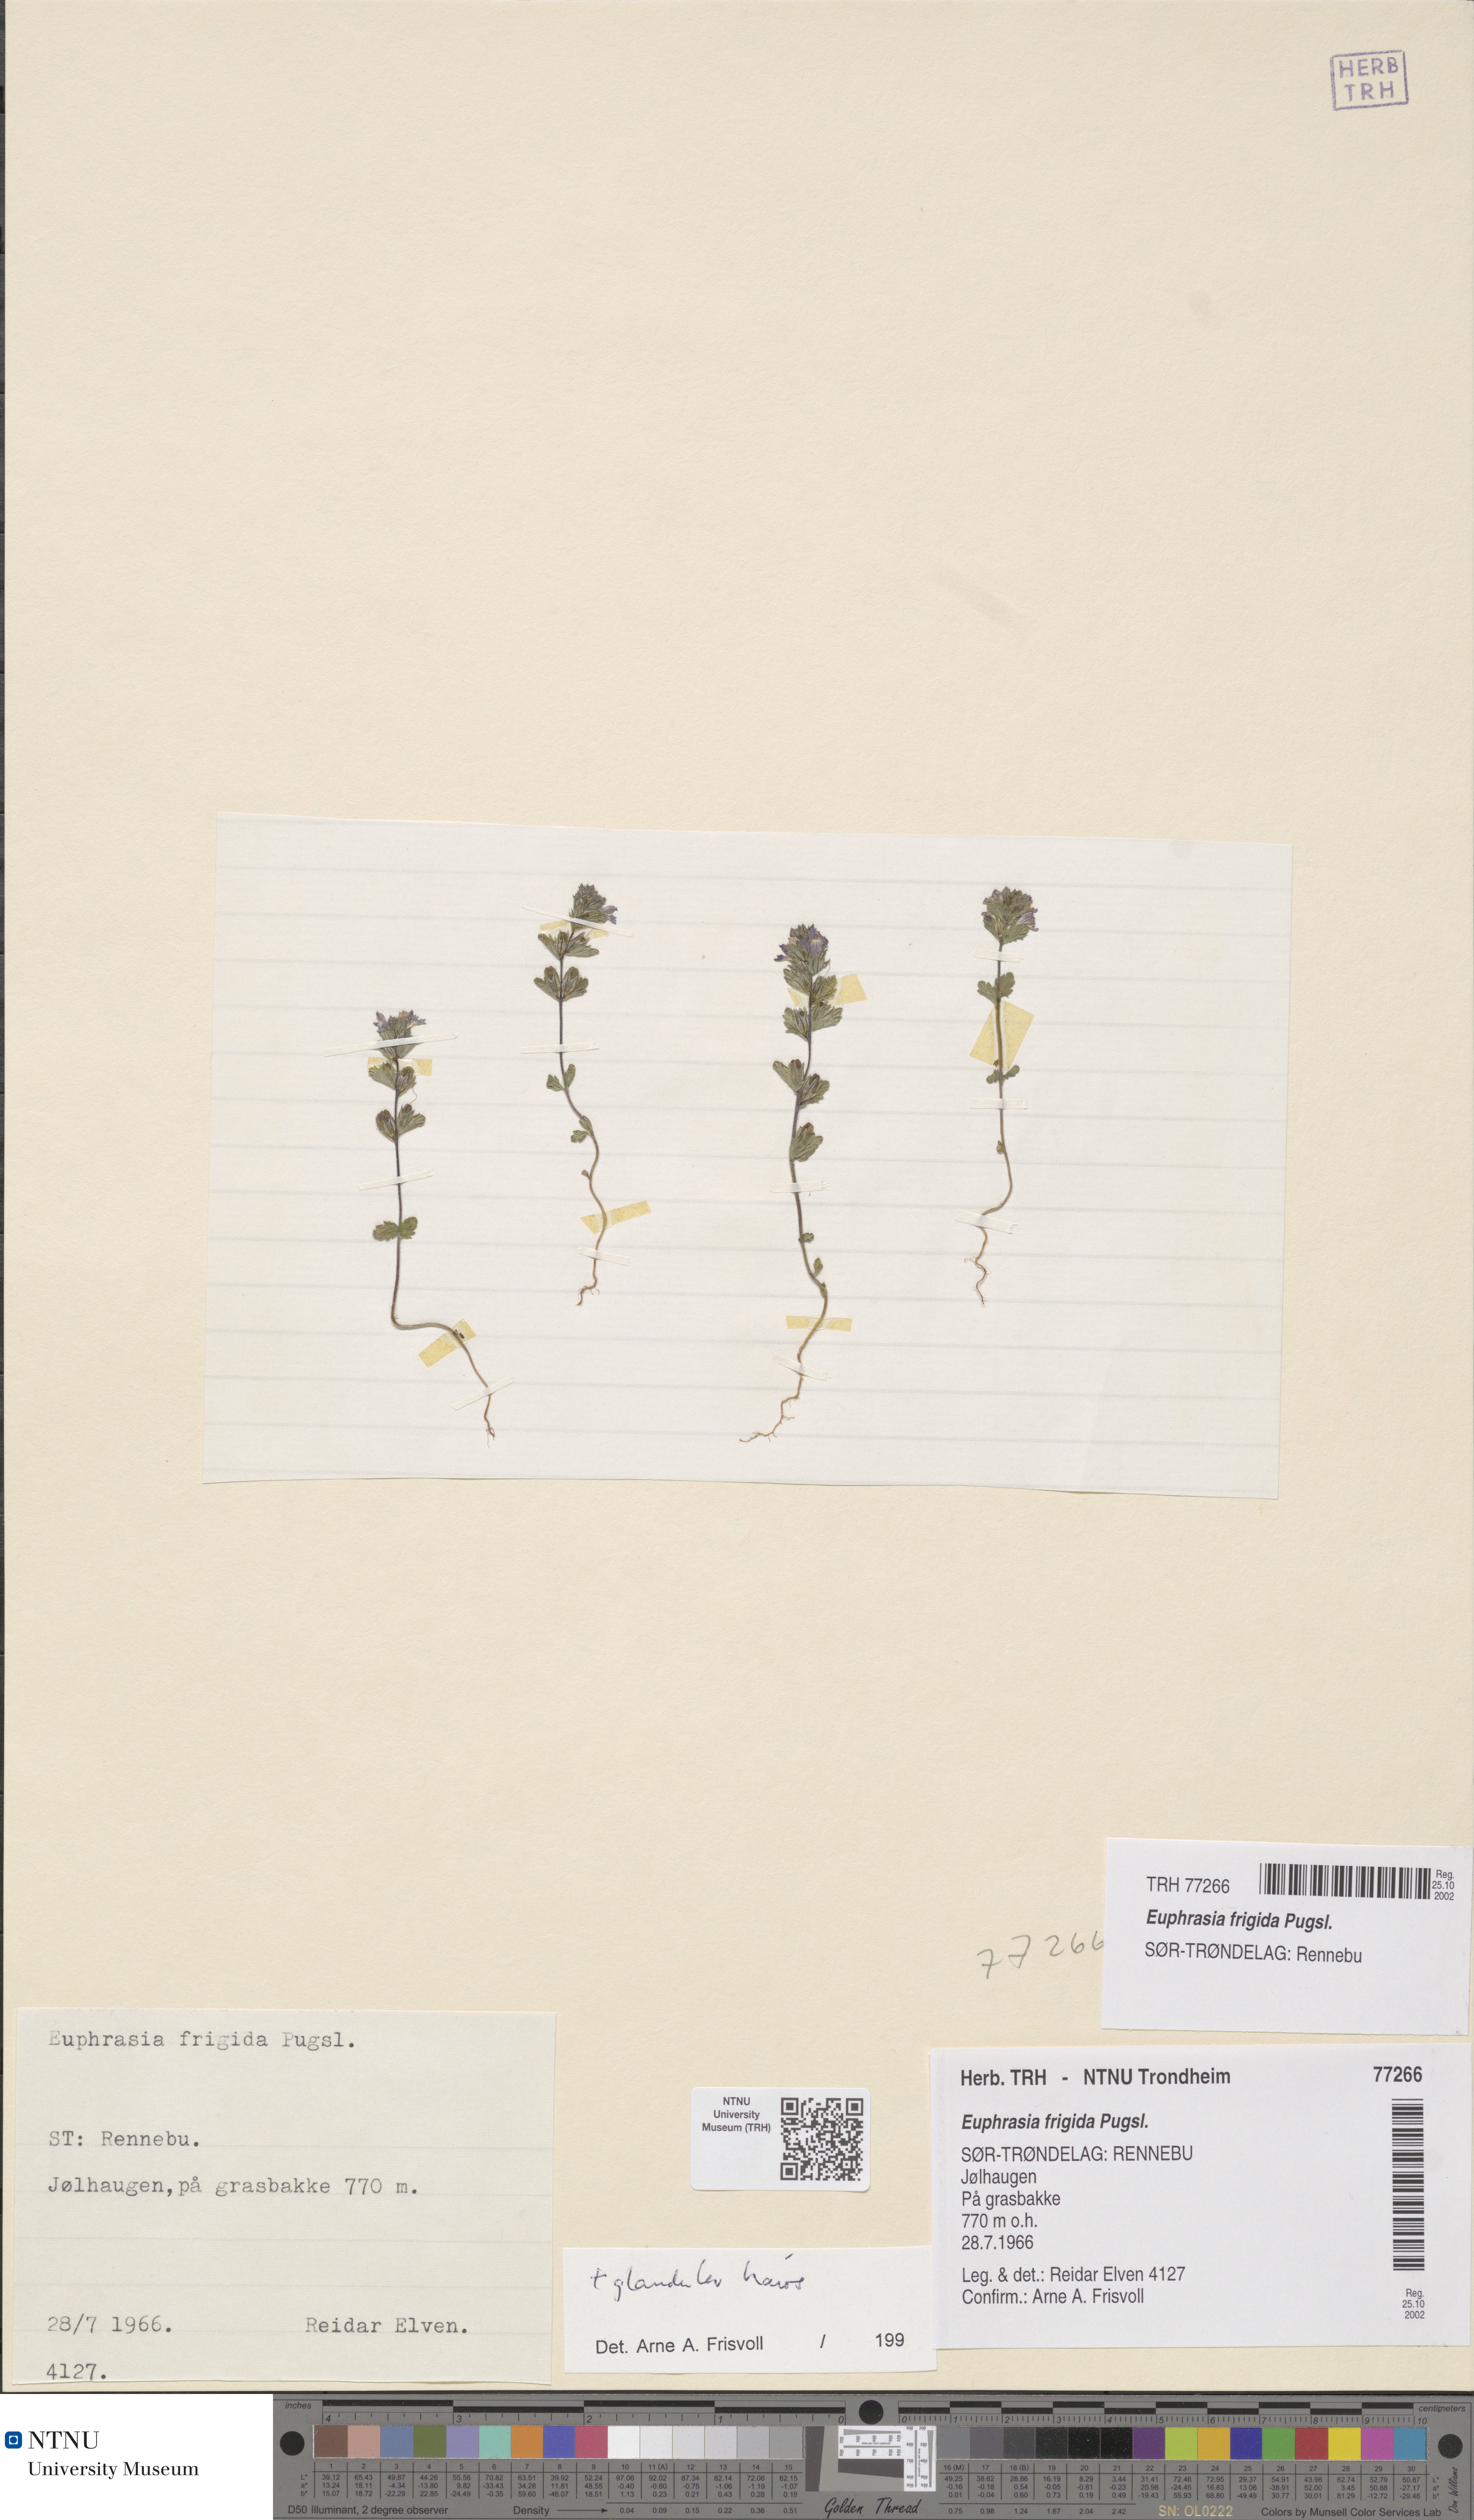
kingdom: Plantae
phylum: Tracheophyta
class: Magnoliopsida
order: Lamiales
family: Orobanchaceae
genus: Euphrasia
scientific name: Euphrasia wettsteinii
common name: Wettstein's eyebright
